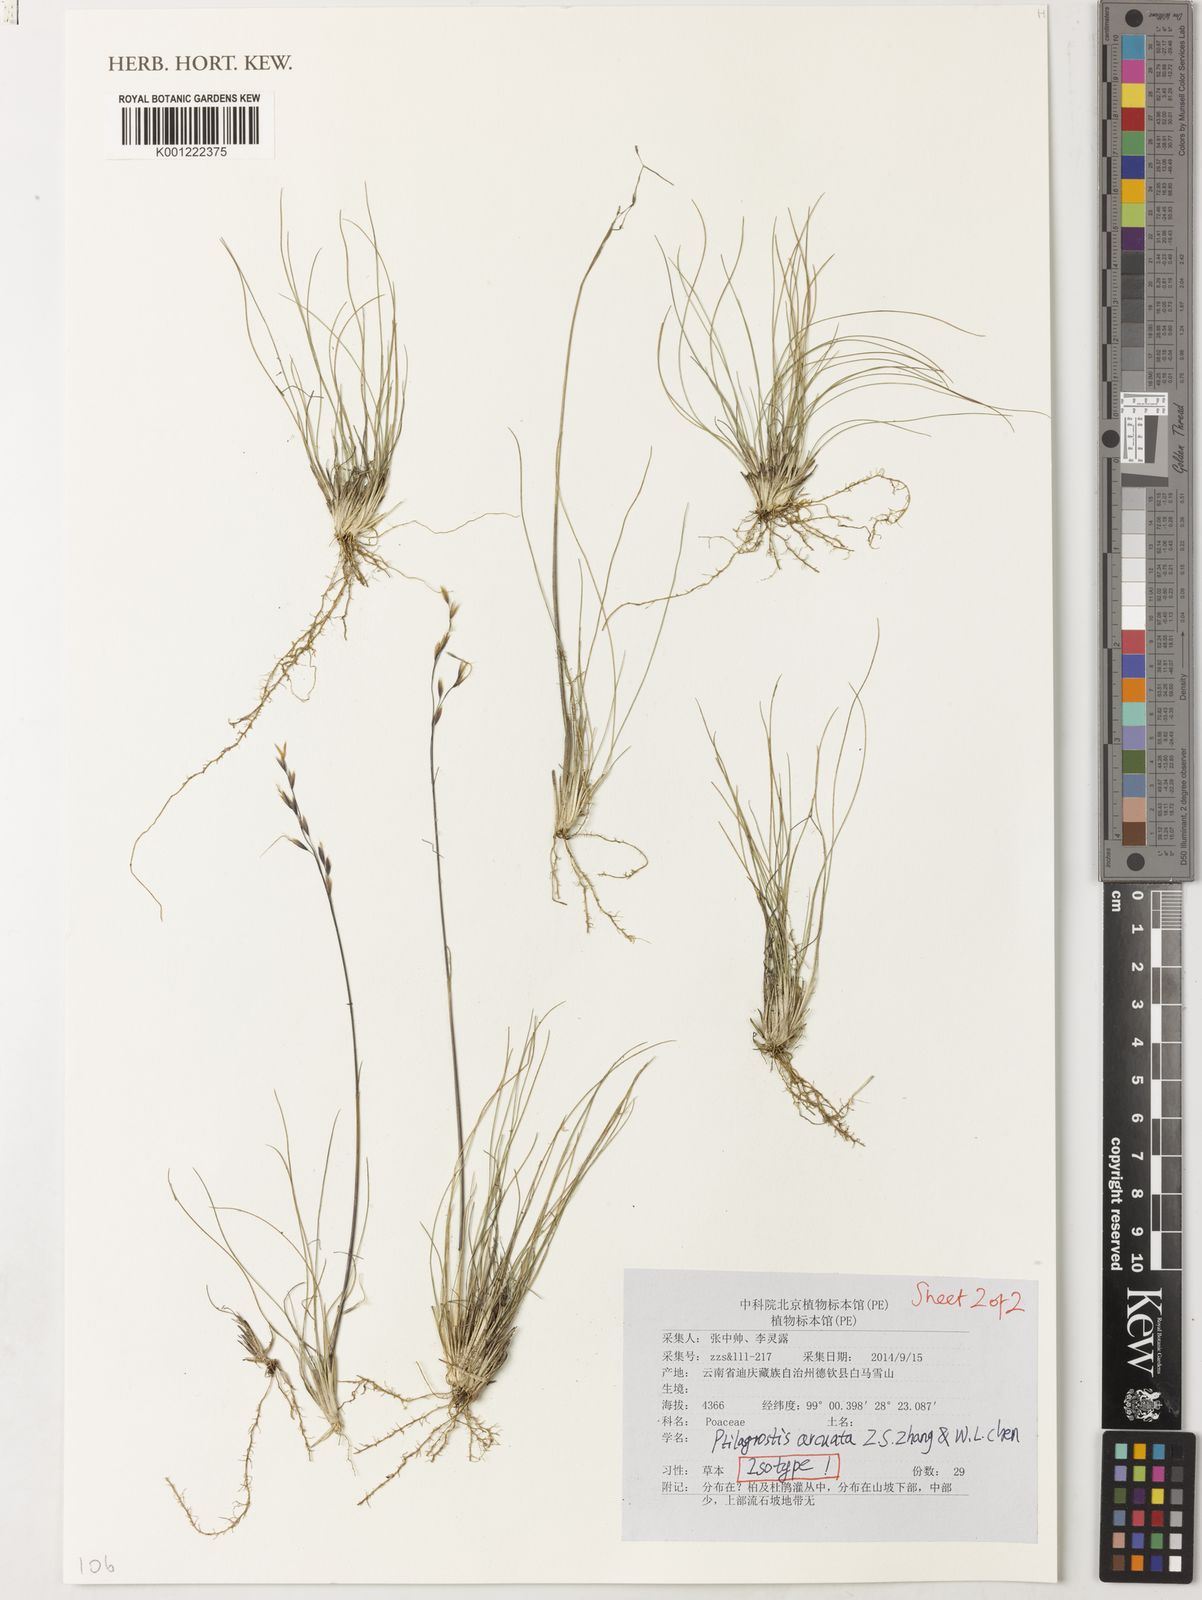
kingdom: Plantae
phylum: Tracheophyta
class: Liliopsida
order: Poales
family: Poaceae
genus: Ptilagrostis
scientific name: Ptilagrostis arcuata
